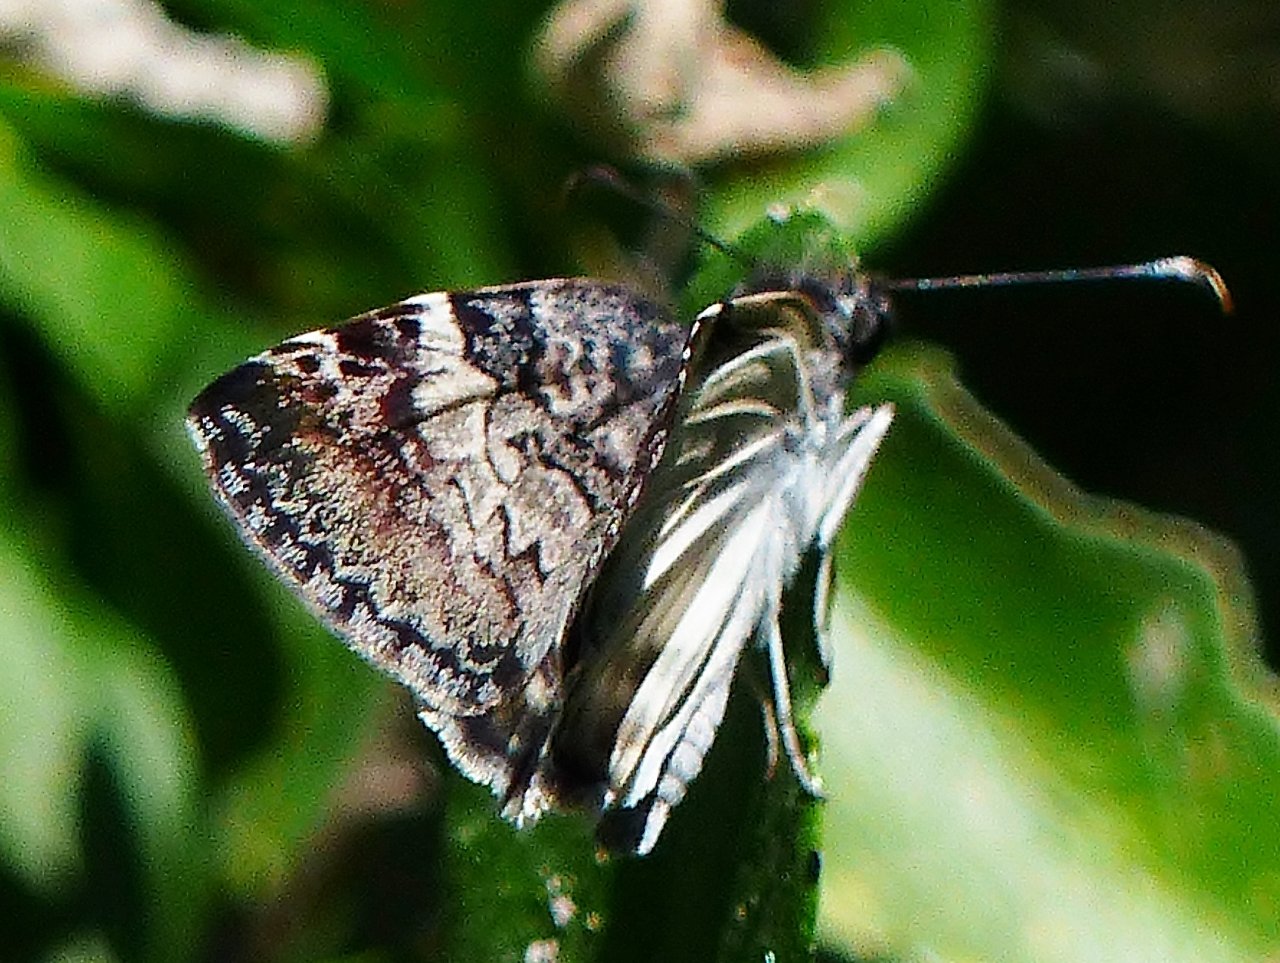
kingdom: Animalia
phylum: Arthropoda
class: Insecta
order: Lepidoptera
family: Hesperiidae
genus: Chiomara
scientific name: Chiomara asychis
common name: White-patched Skipper
